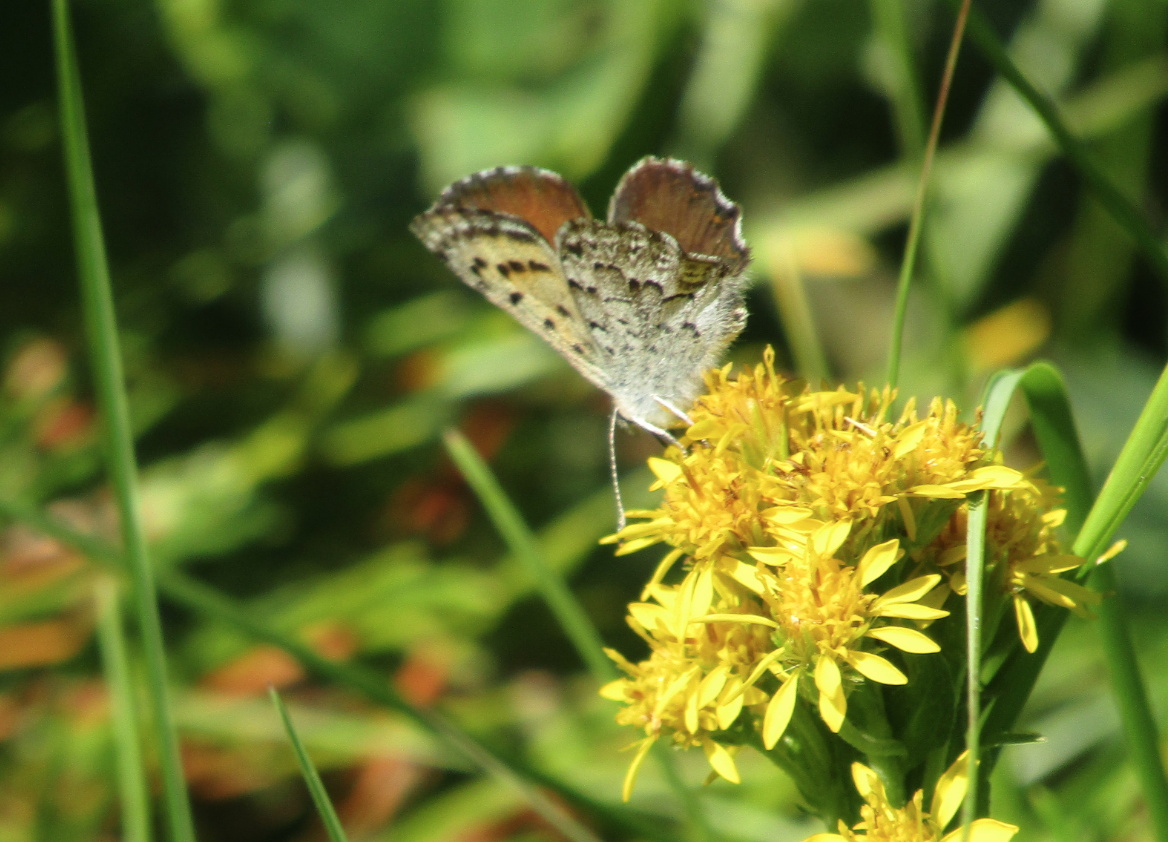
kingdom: Animalia
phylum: Arthropoda
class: Insecta
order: Lepidoptera
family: Lycaenidae
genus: Lycaena
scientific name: Lycaena mariposa
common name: Mariposa Copper
